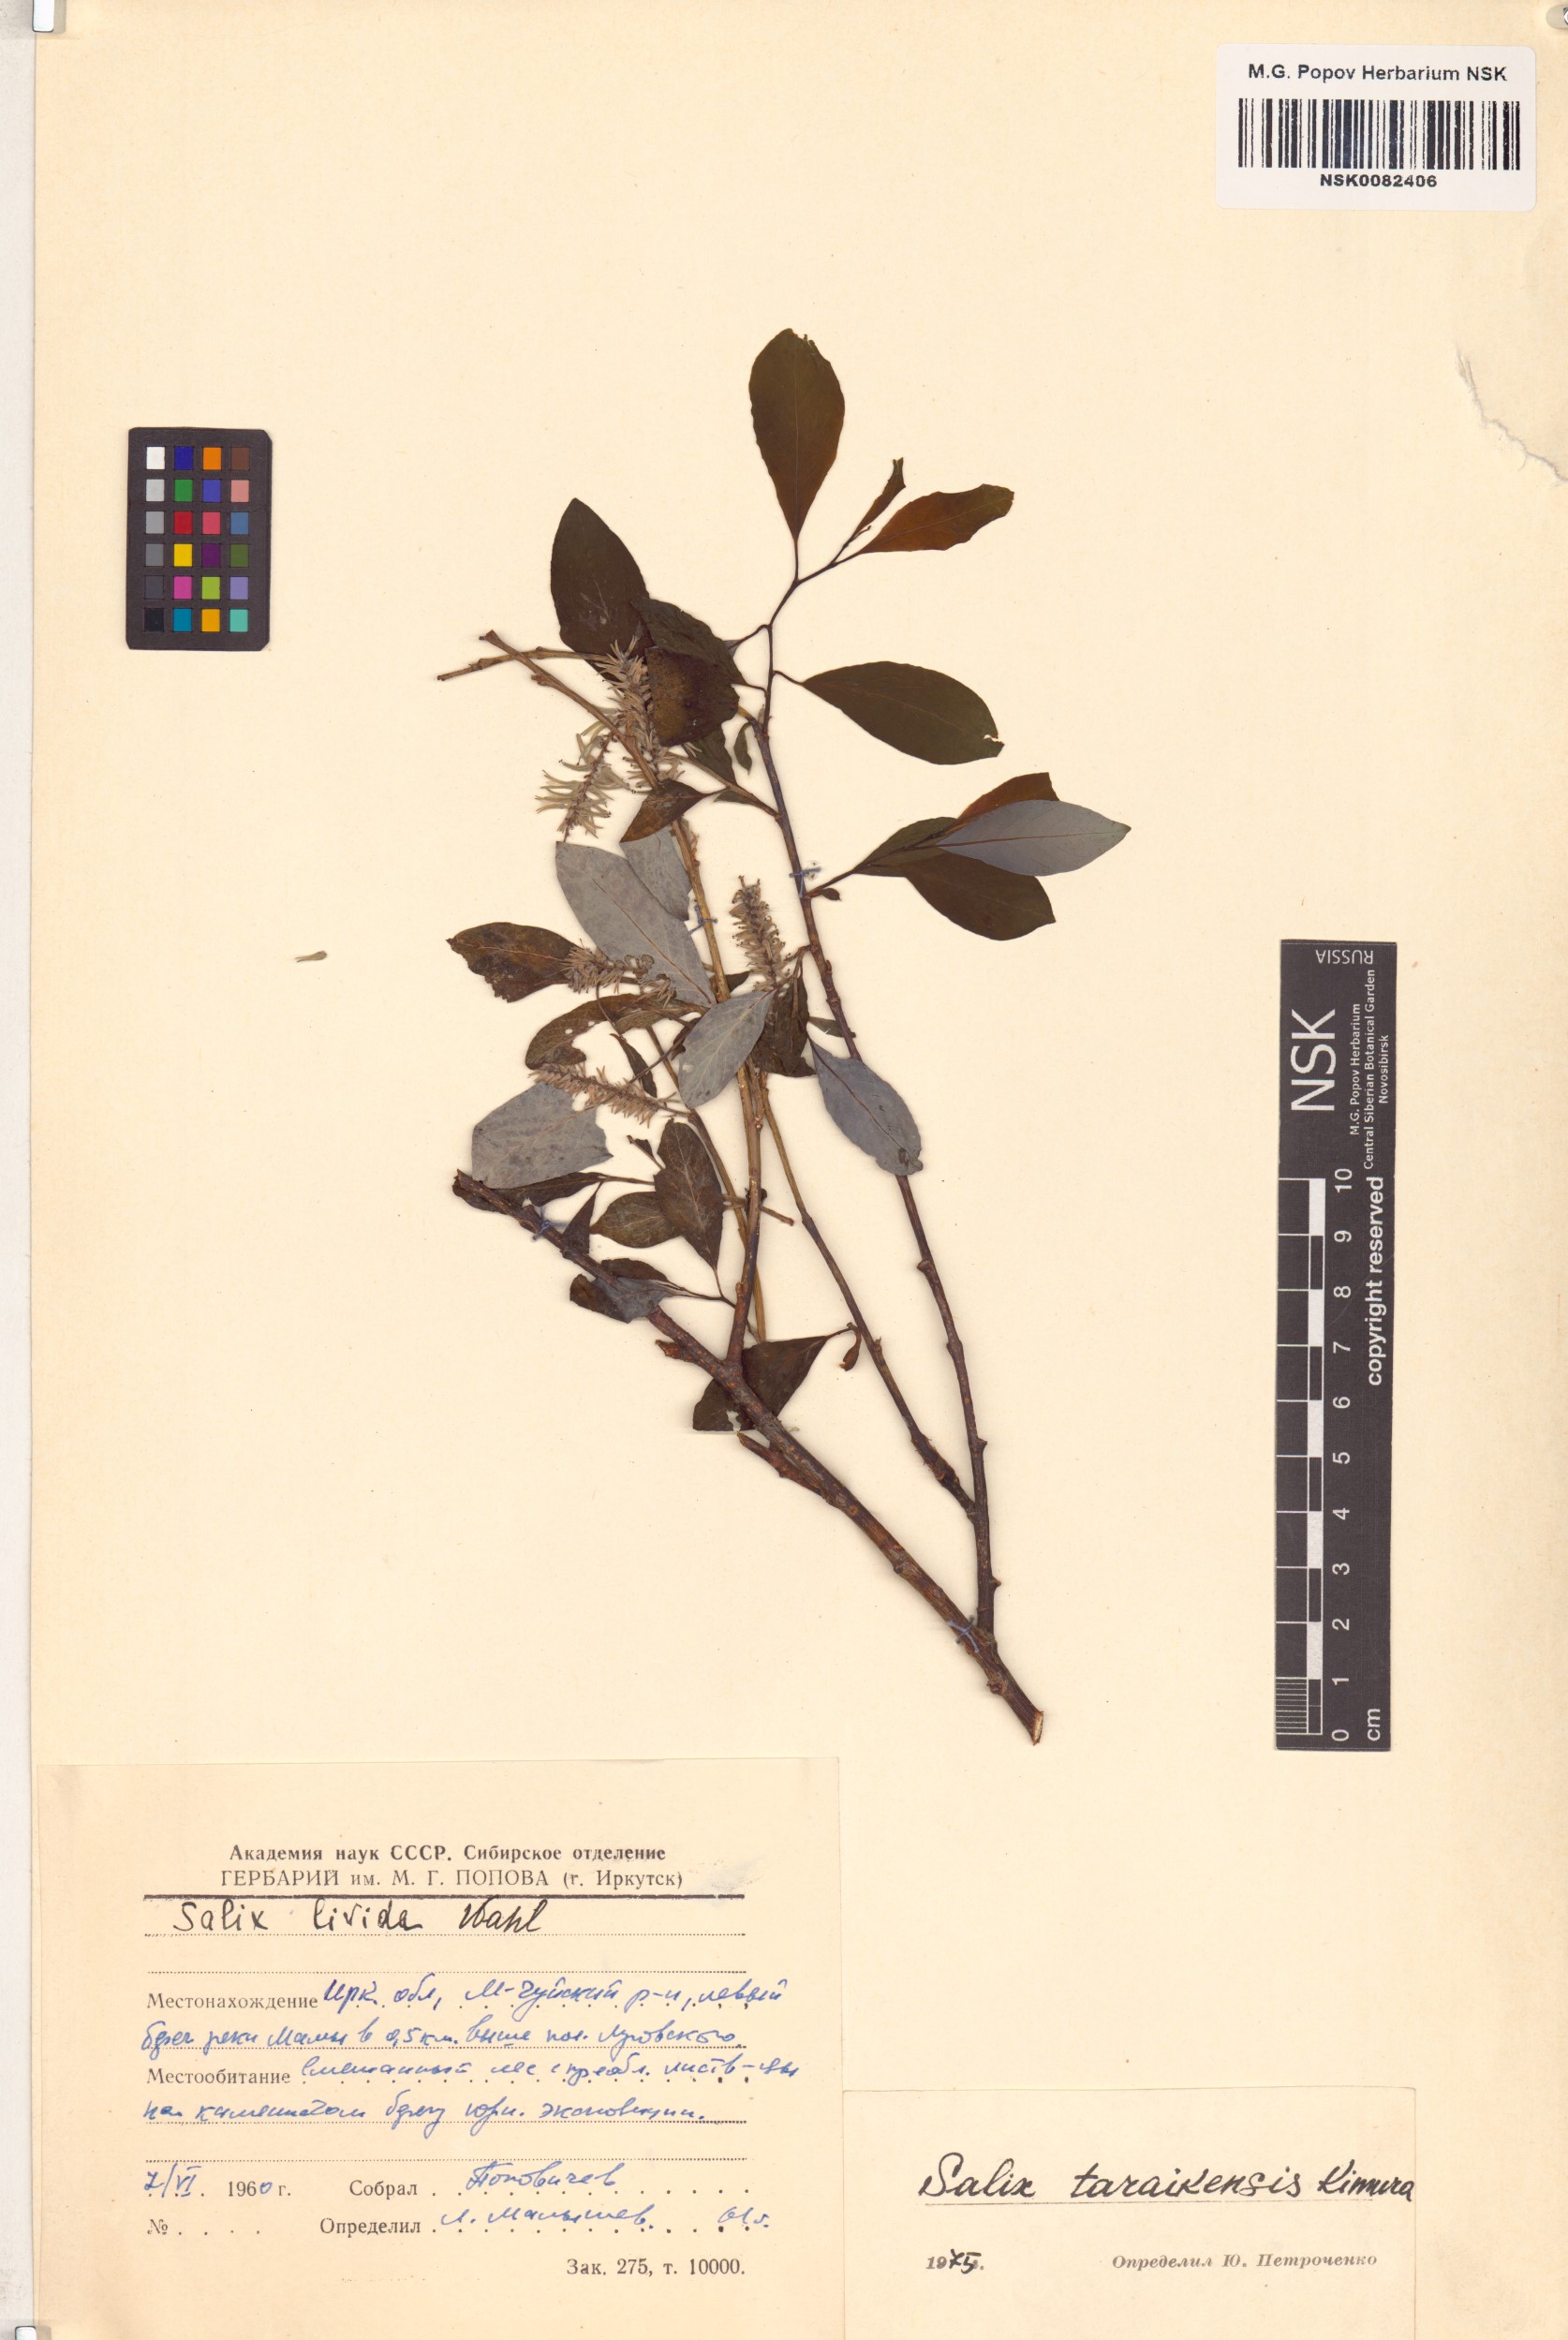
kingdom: Plantae
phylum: Tracheophyta
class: Magnoliopsida
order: Malpighiales
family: Salicaceae
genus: Salix
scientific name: Salix taraikensis
